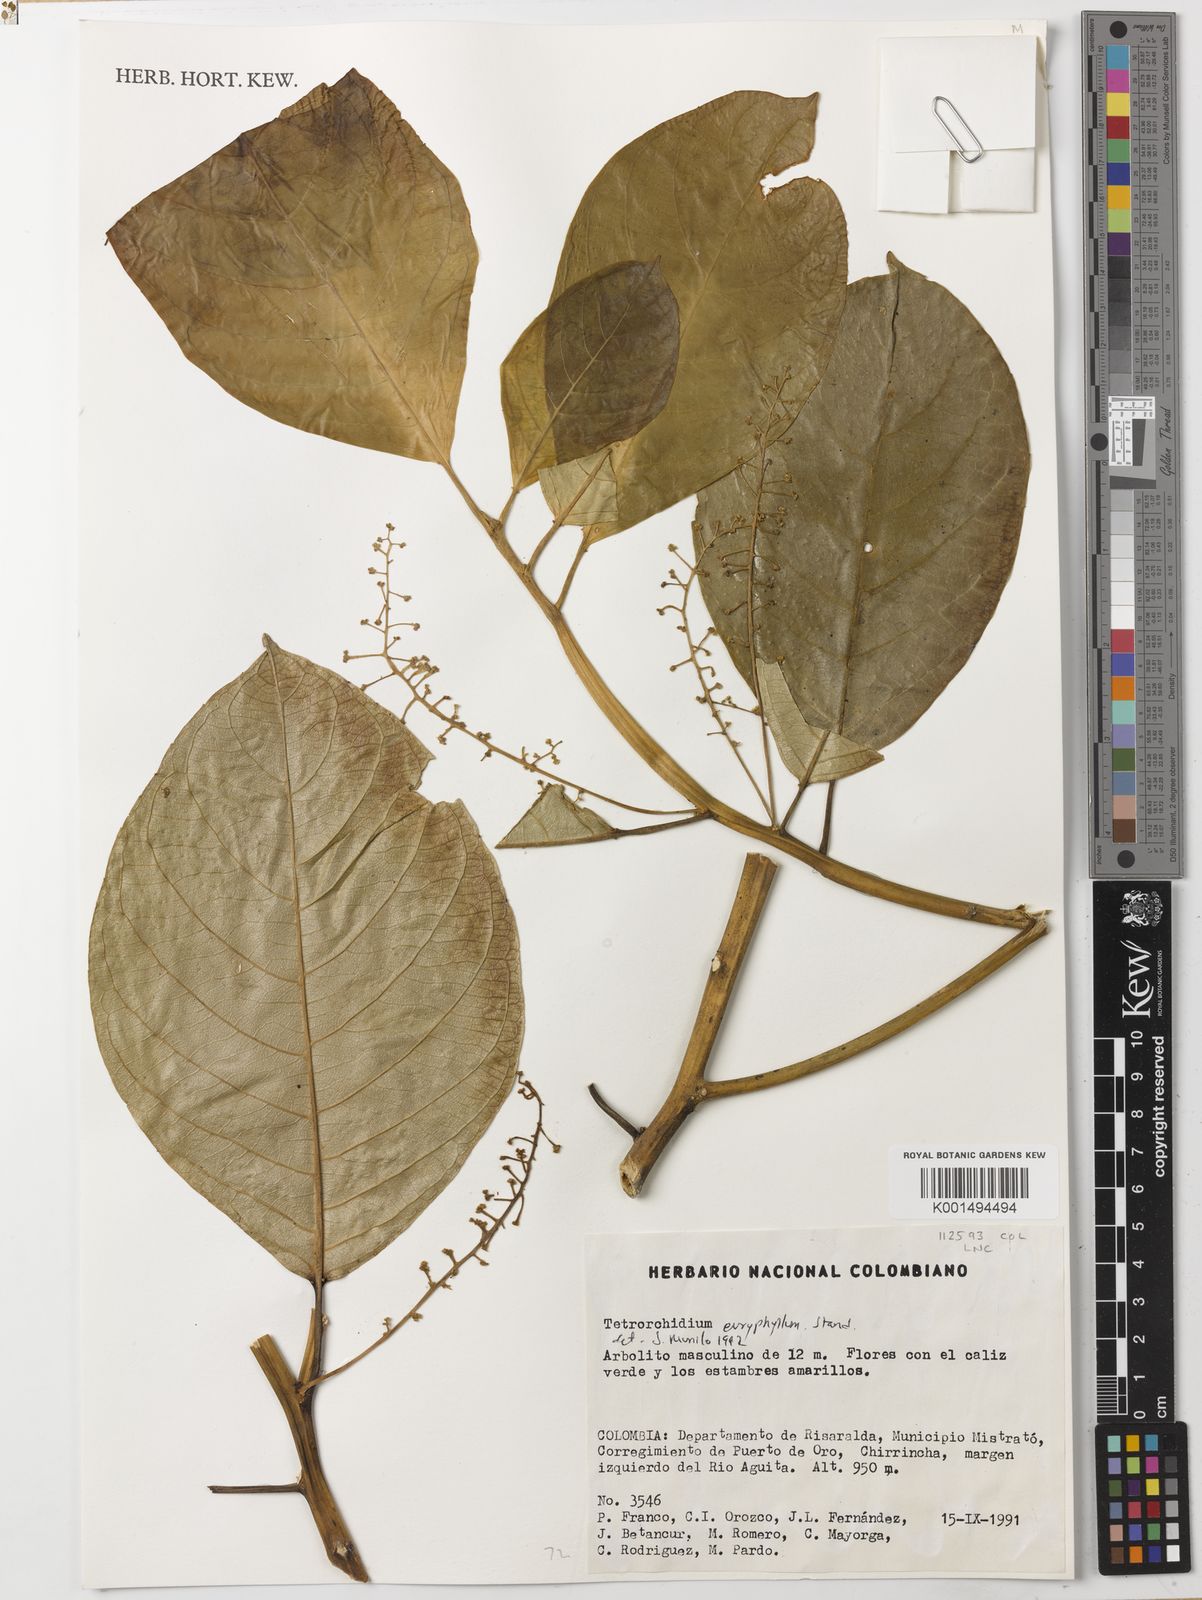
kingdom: Plantae
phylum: Tracheophyta
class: Magnoliopsida
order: Malpighiales
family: Euphorbiaceae
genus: Tetrorchidium
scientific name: Tetrorchidium euryphyllum
